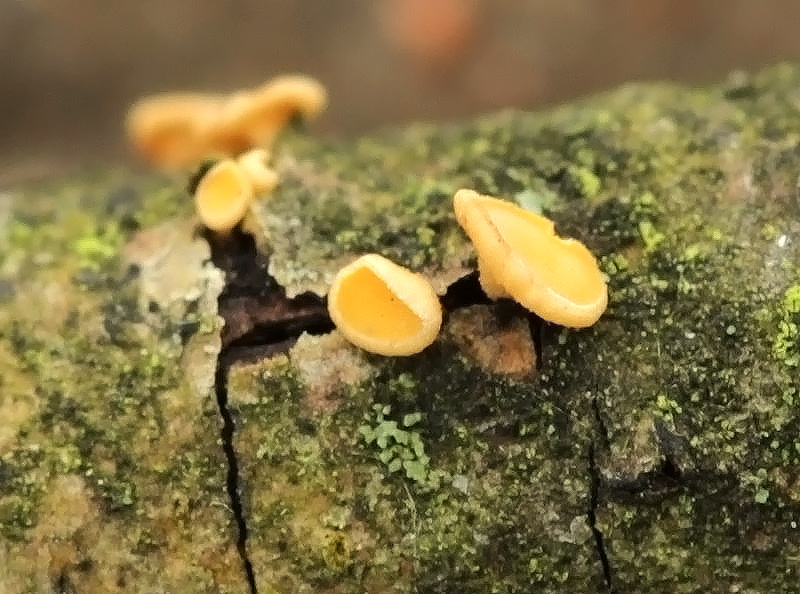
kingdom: Fungi
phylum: Ascomycota
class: Leotiomycetes
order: Helotiales
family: Helotiaceae
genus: Hymenoscyphus
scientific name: Hymenoscyphus calyculus
